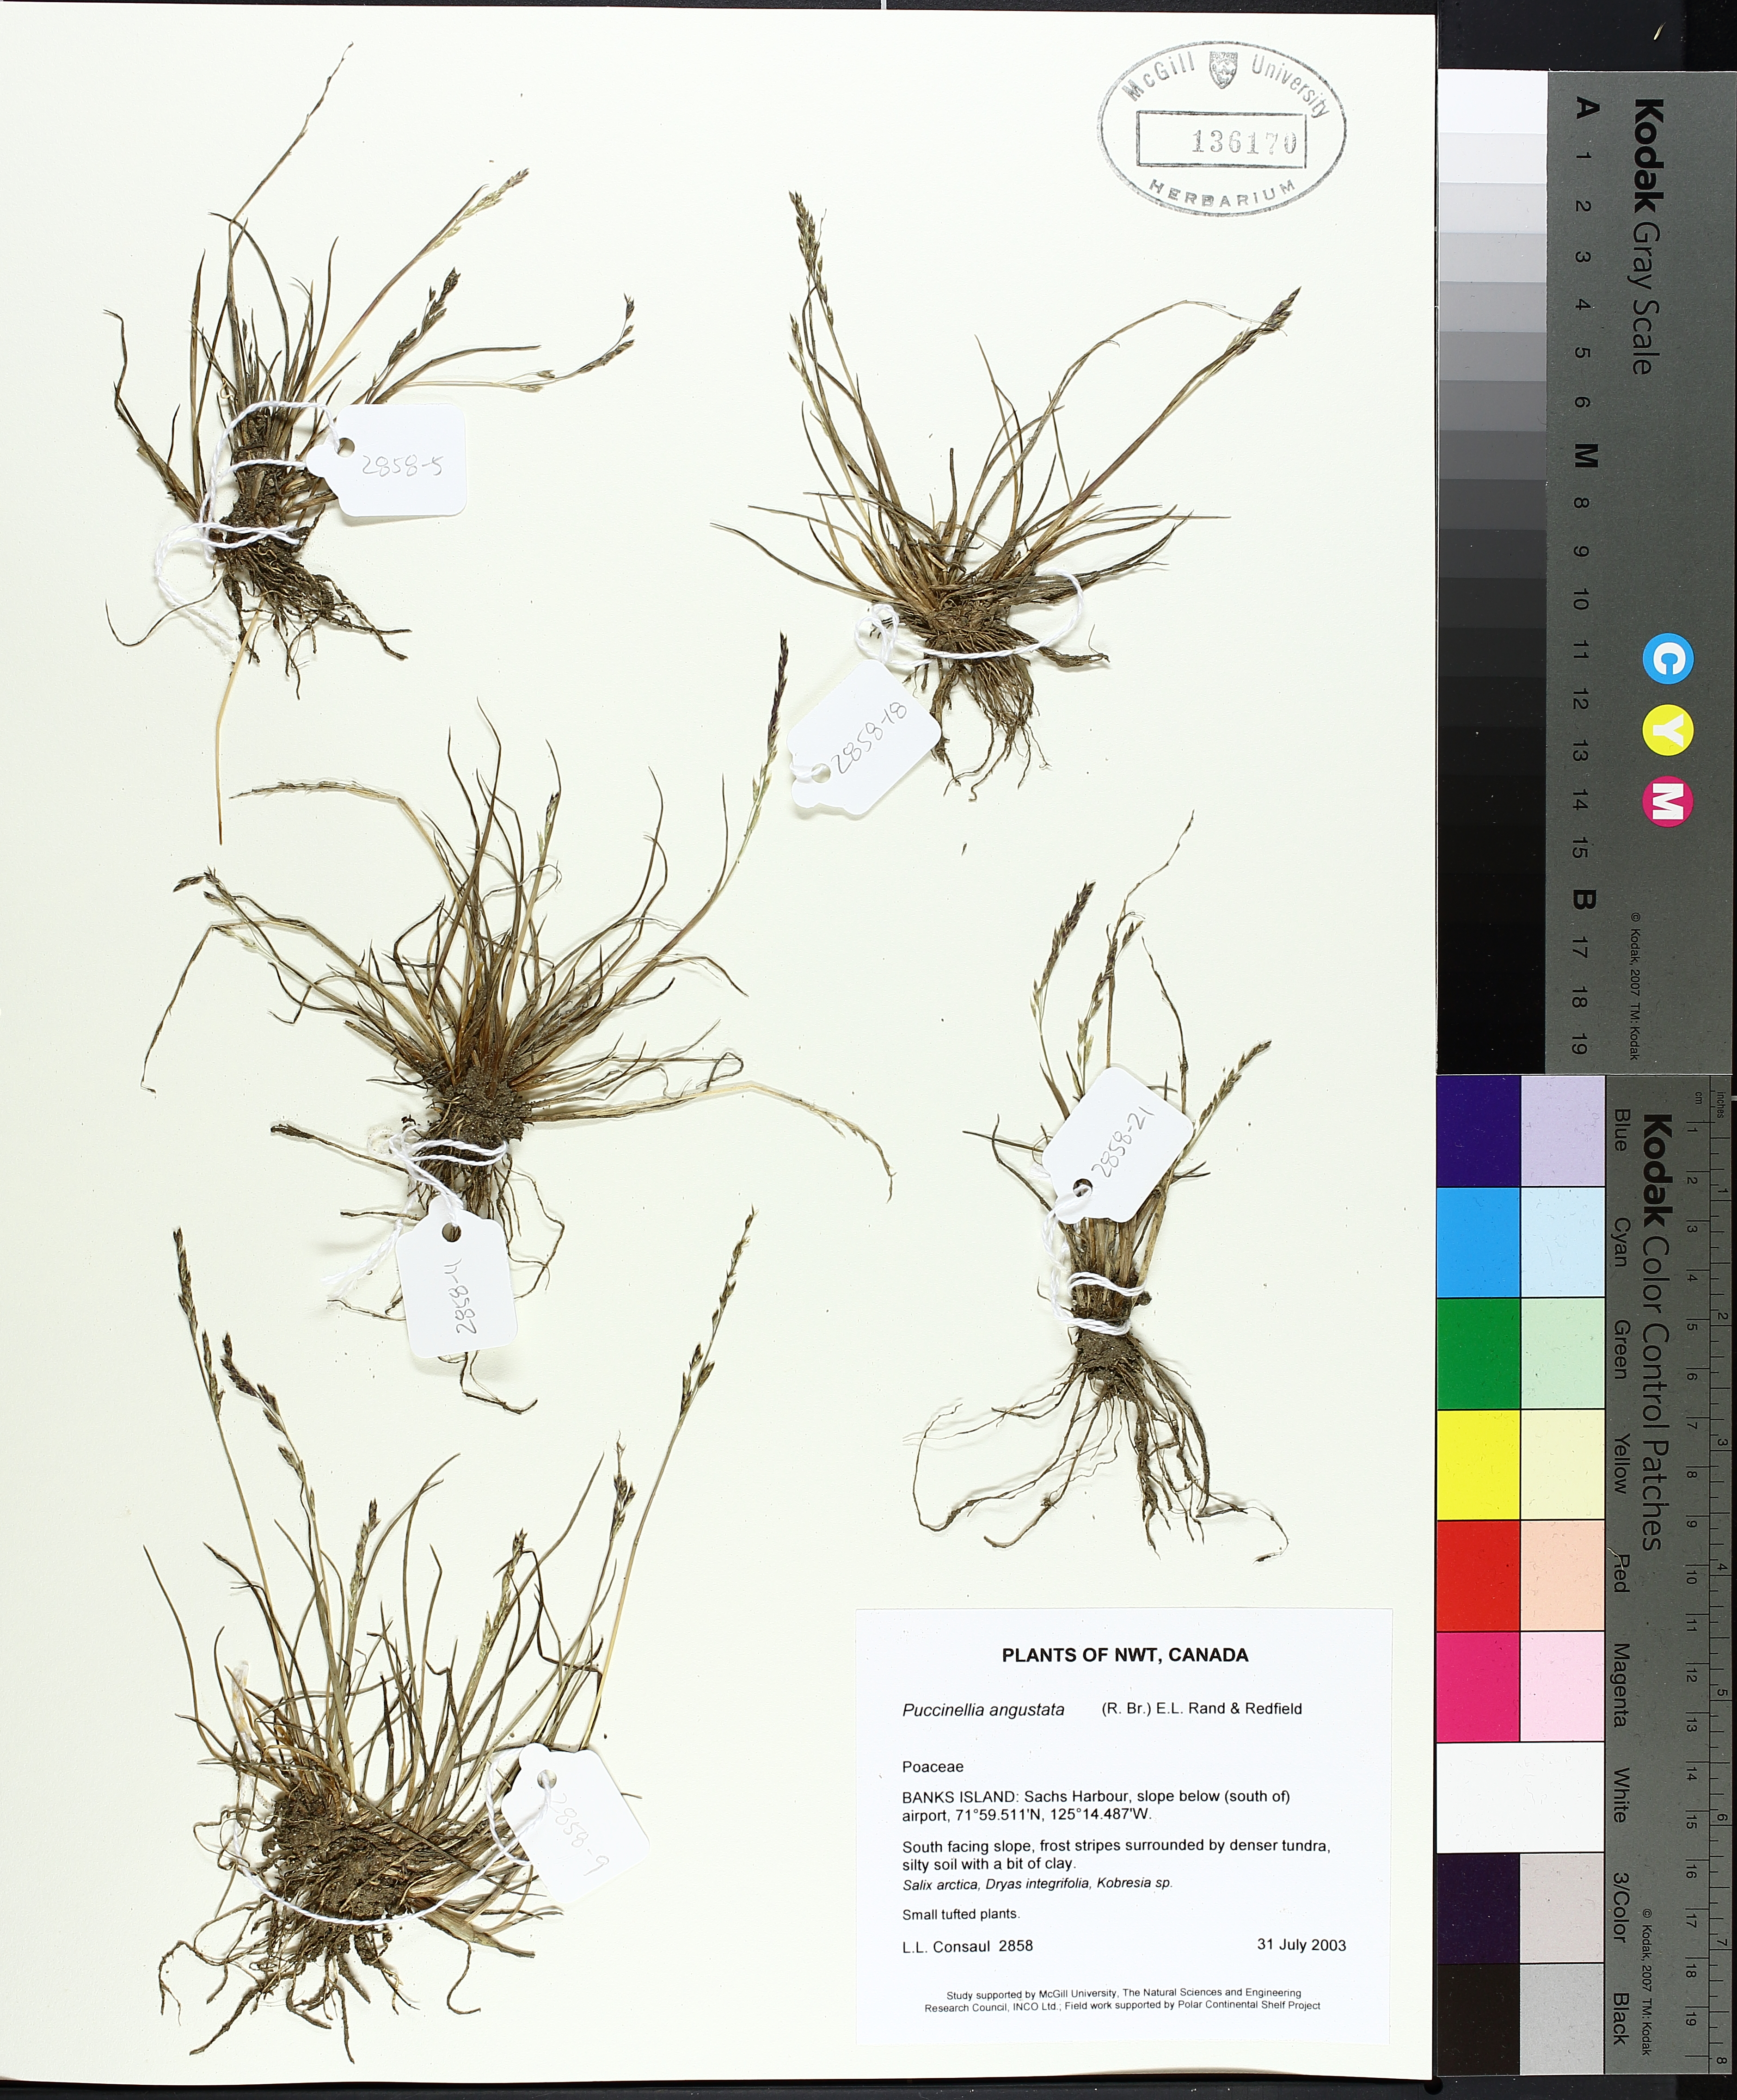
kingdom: Plantae
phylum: Tracheophyta
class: Liliopsida
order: Poales
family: Poaceae
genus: Puccinellia
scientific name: Puccinellia angustata
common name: Narrow alkaligrass
